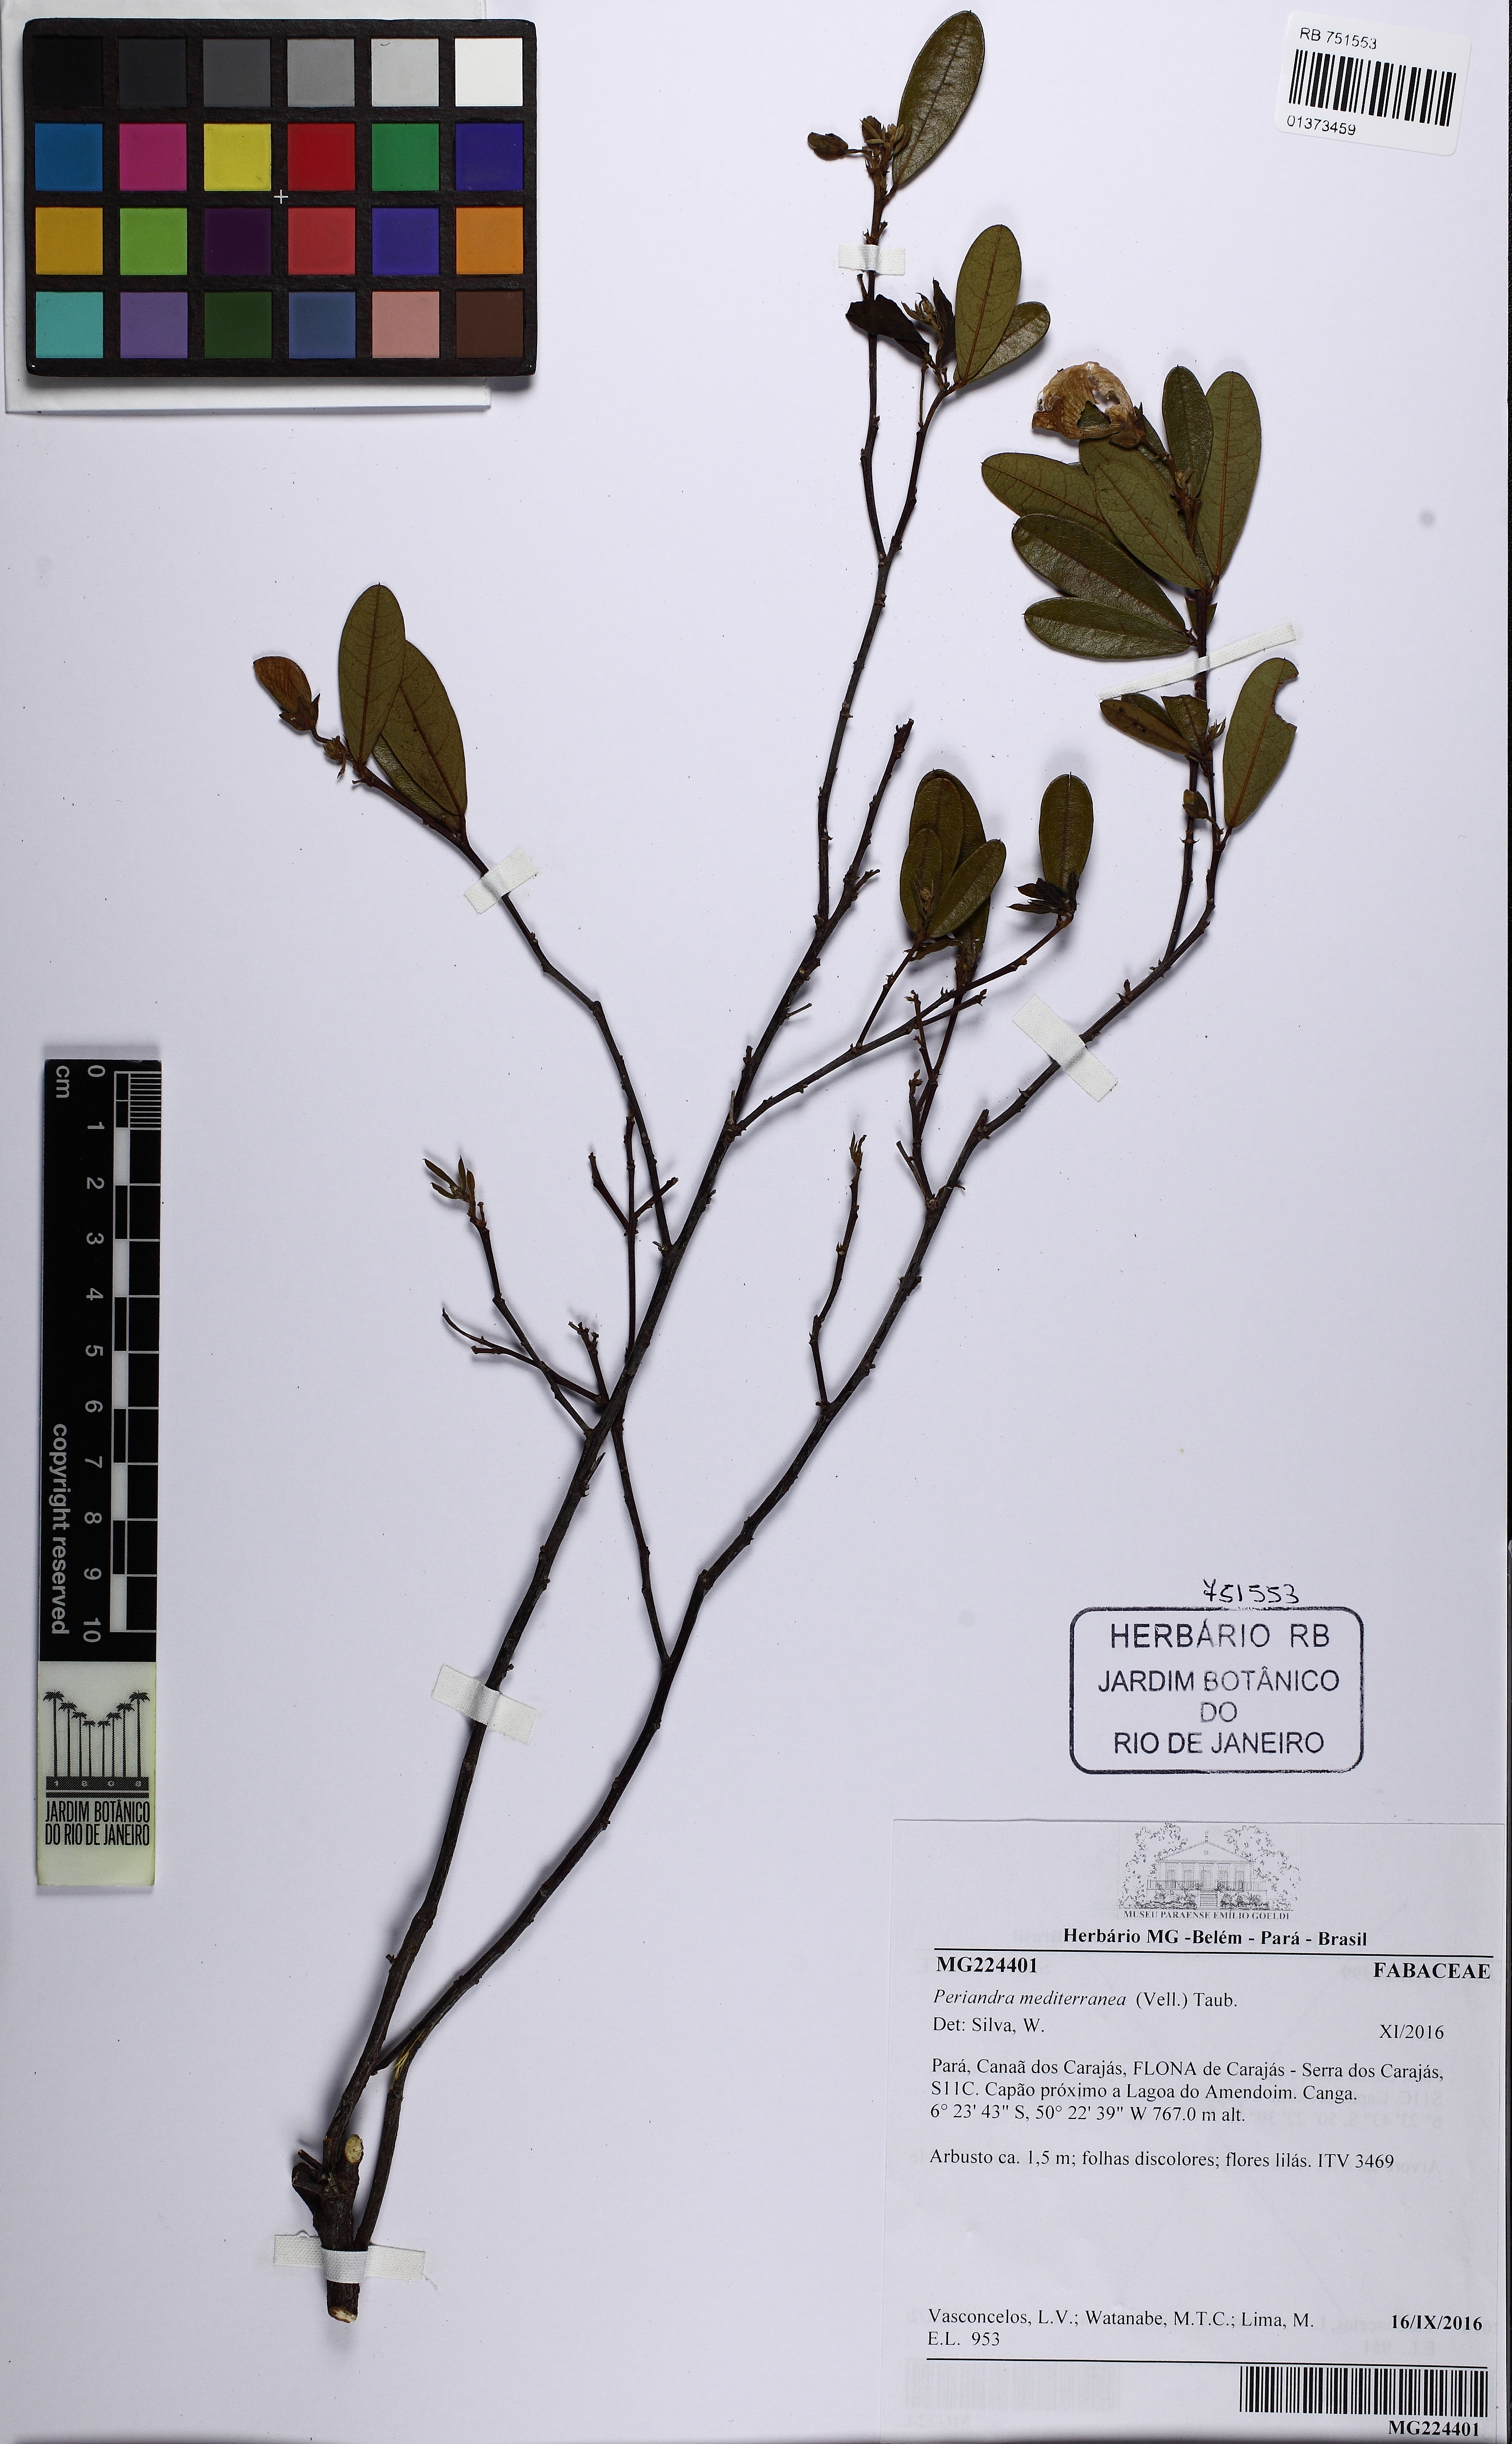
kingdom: Plantae
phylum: Tracheophyta
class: Magnoliopsida
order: Fabales
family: Fabaceae
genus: Periandra
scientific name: Periandra mediterranea
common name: Brazilian licorice
